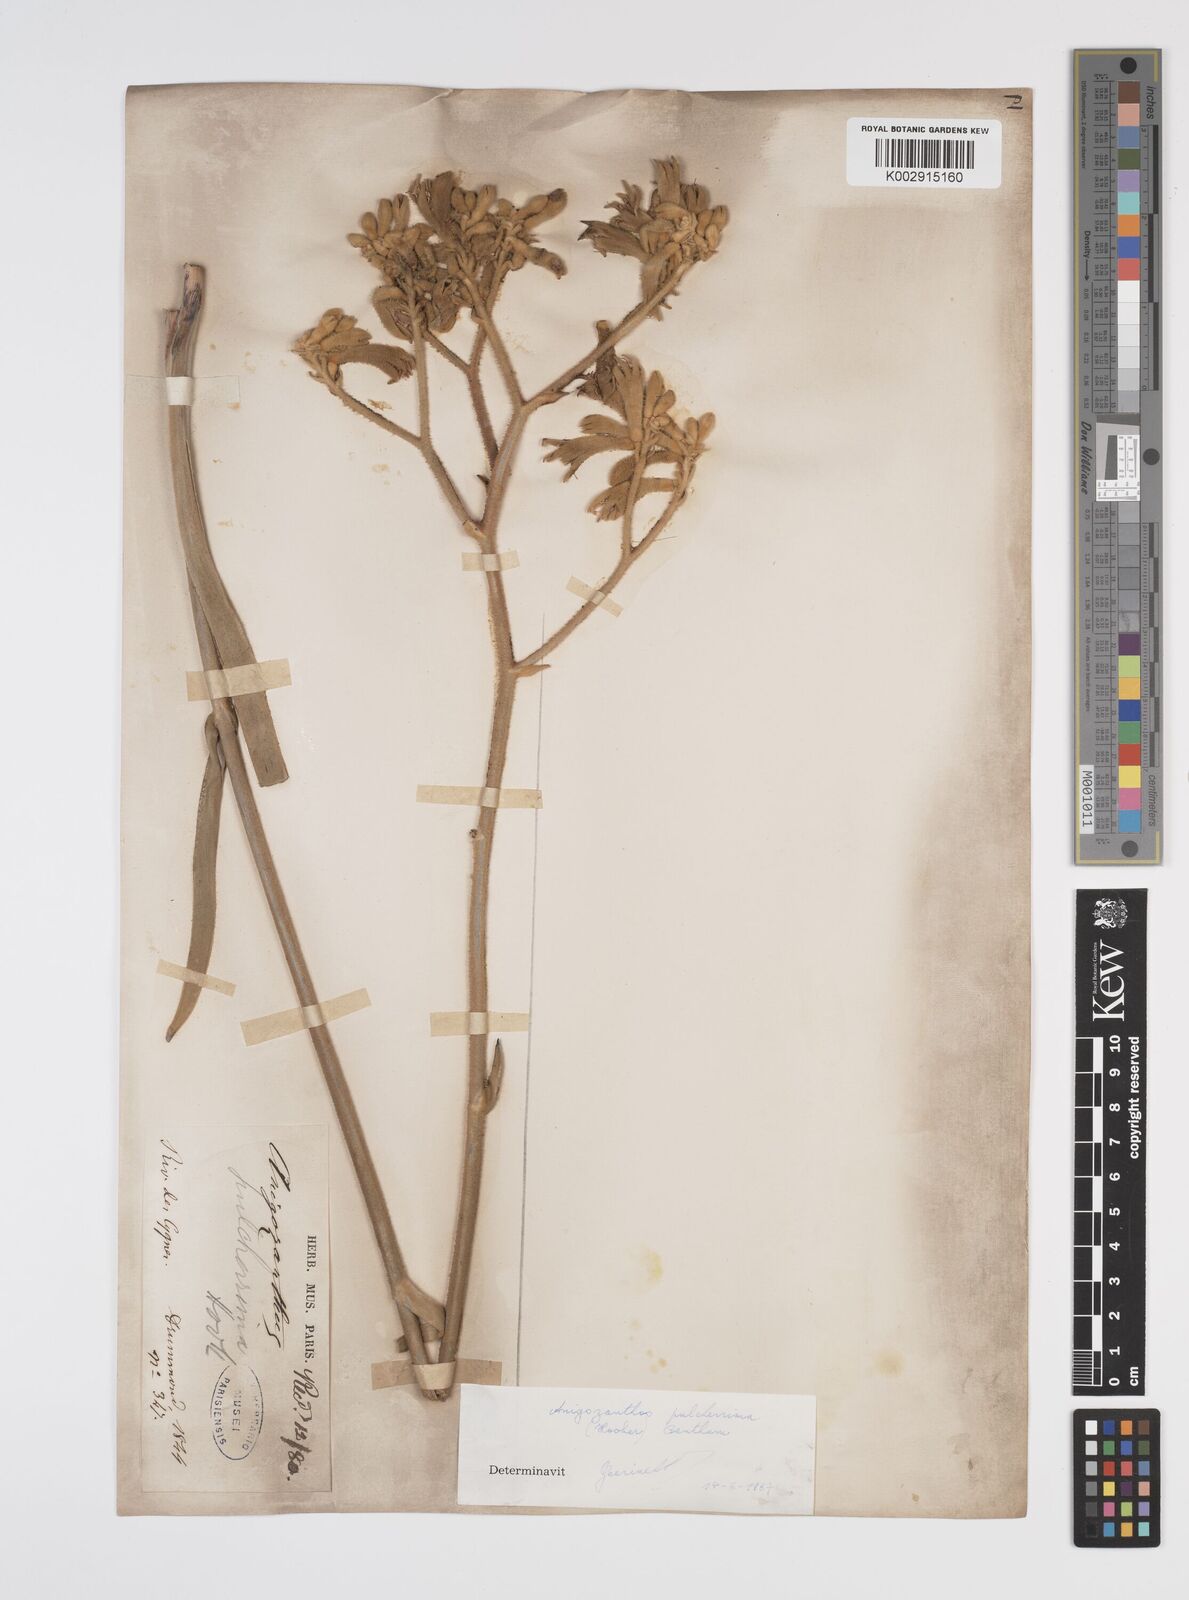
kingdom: Plantae
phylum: Tracheophyta
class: Liliopsida
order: Commelinales
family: Haemodoraceae
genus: Anigozanthos
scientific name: Anigozanthos pulcherrimus
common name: Yellow kangaroo-paw
